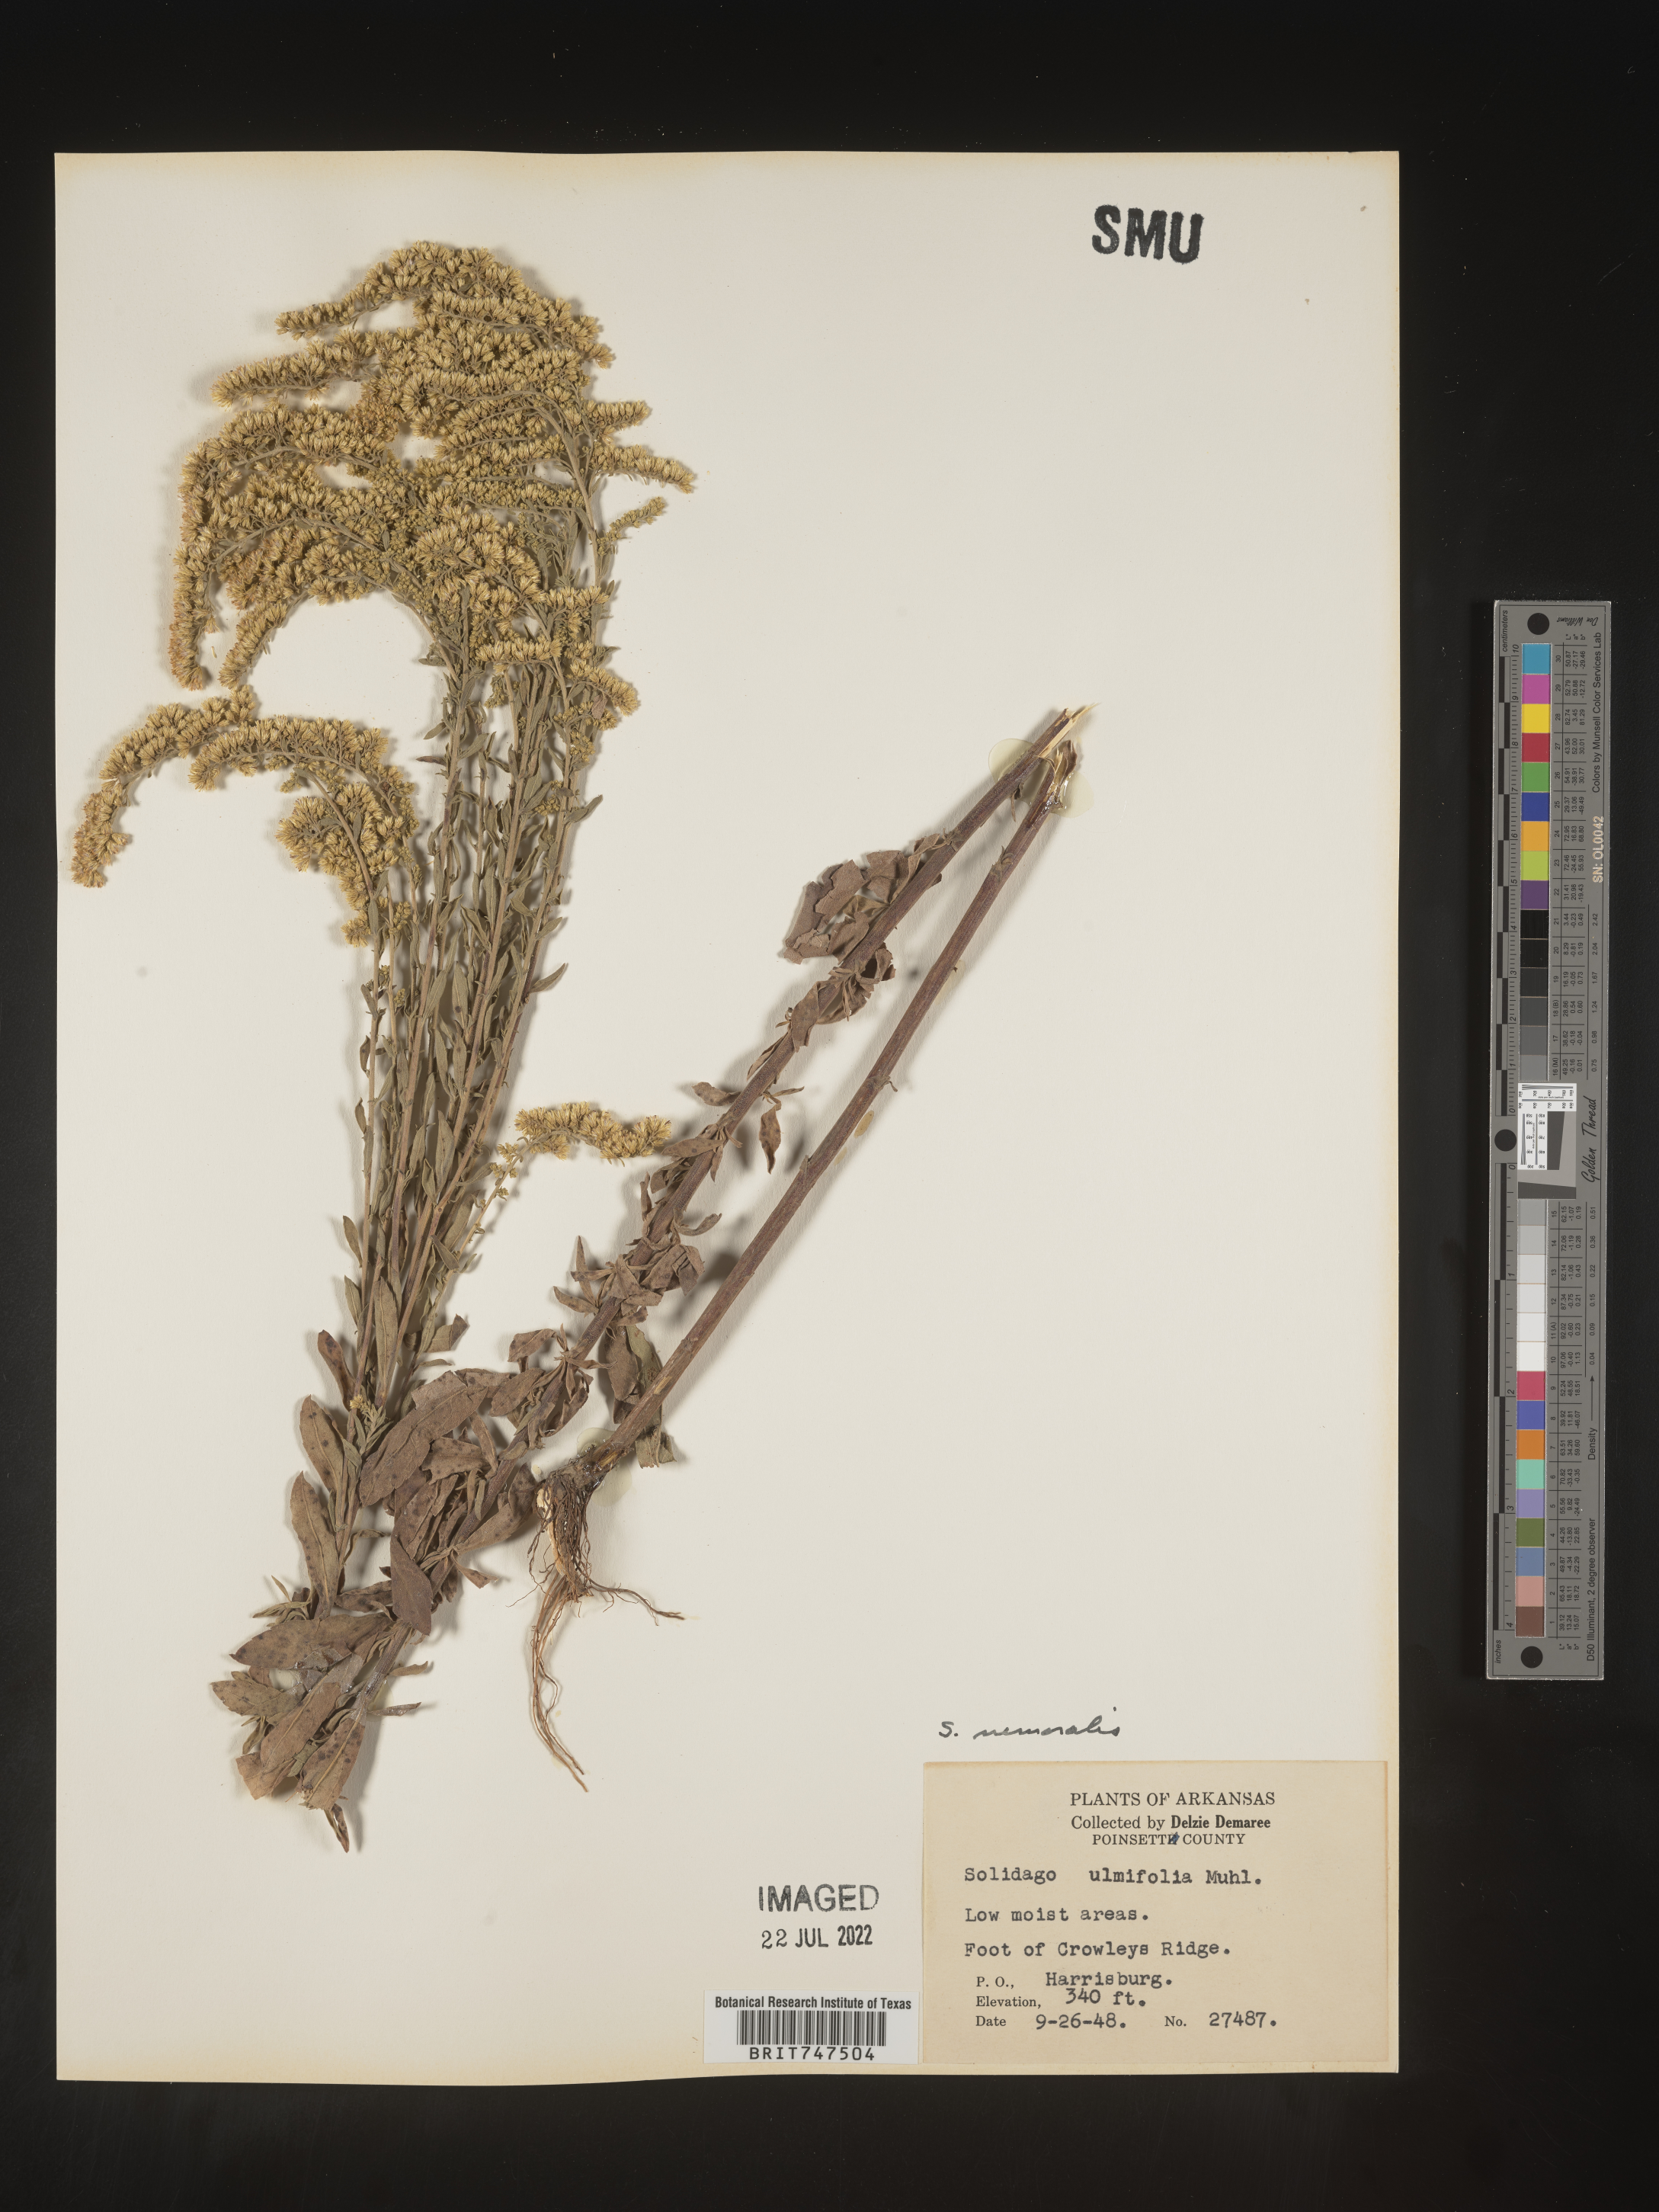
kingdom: Plantae
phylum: Tracheophyta
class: Magnoliopsida
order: Asterales
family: Asteraceae
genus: Solidago
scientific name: Solidago nemoralis
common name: Grey goldenrod
